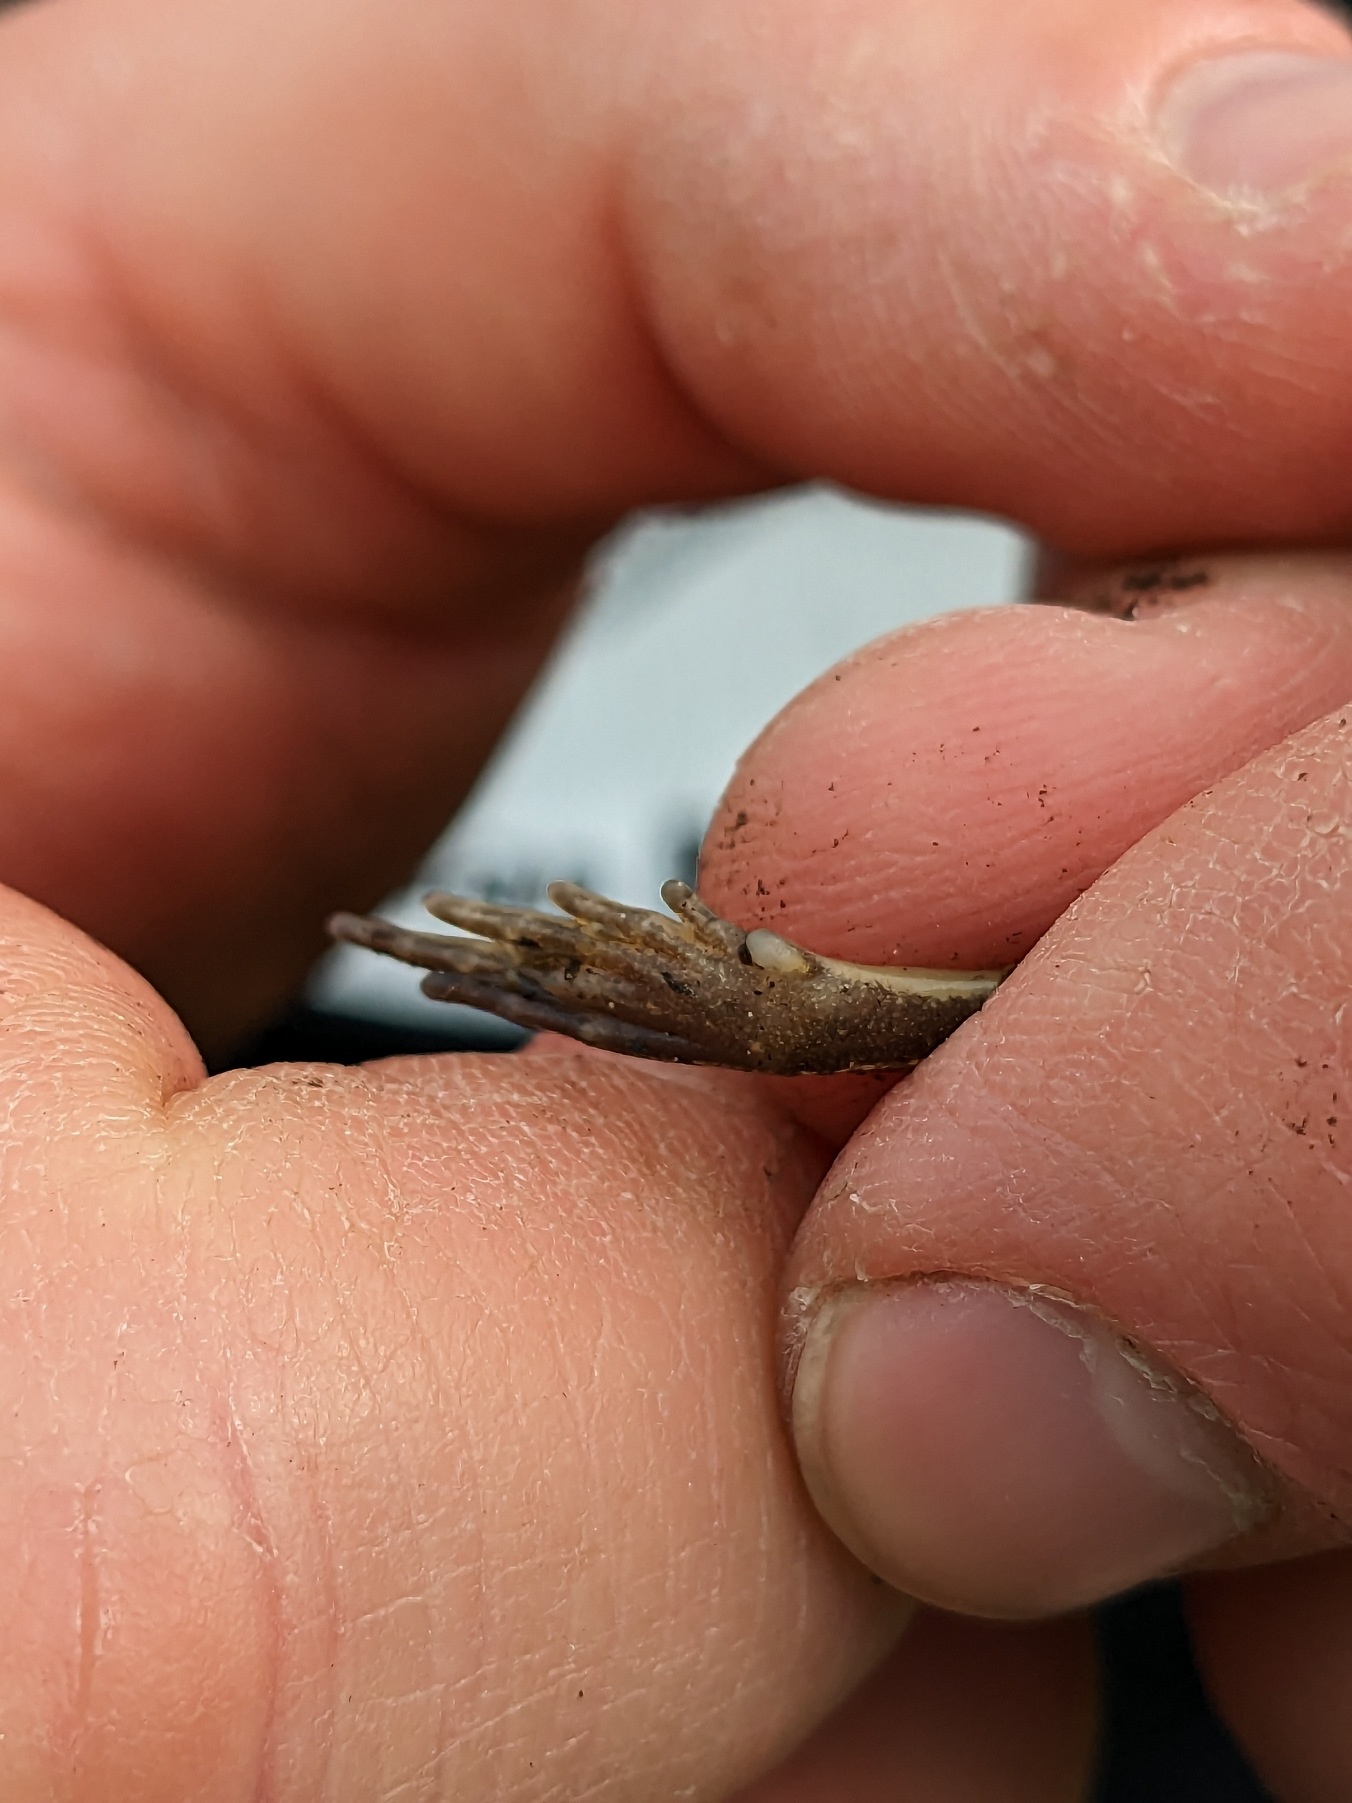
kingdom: Animalia
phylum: Chordata
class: Amphibia
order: Anura
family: Ranidae
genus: Rana
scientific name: Rana arvalis
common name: Spidssnudet frø
